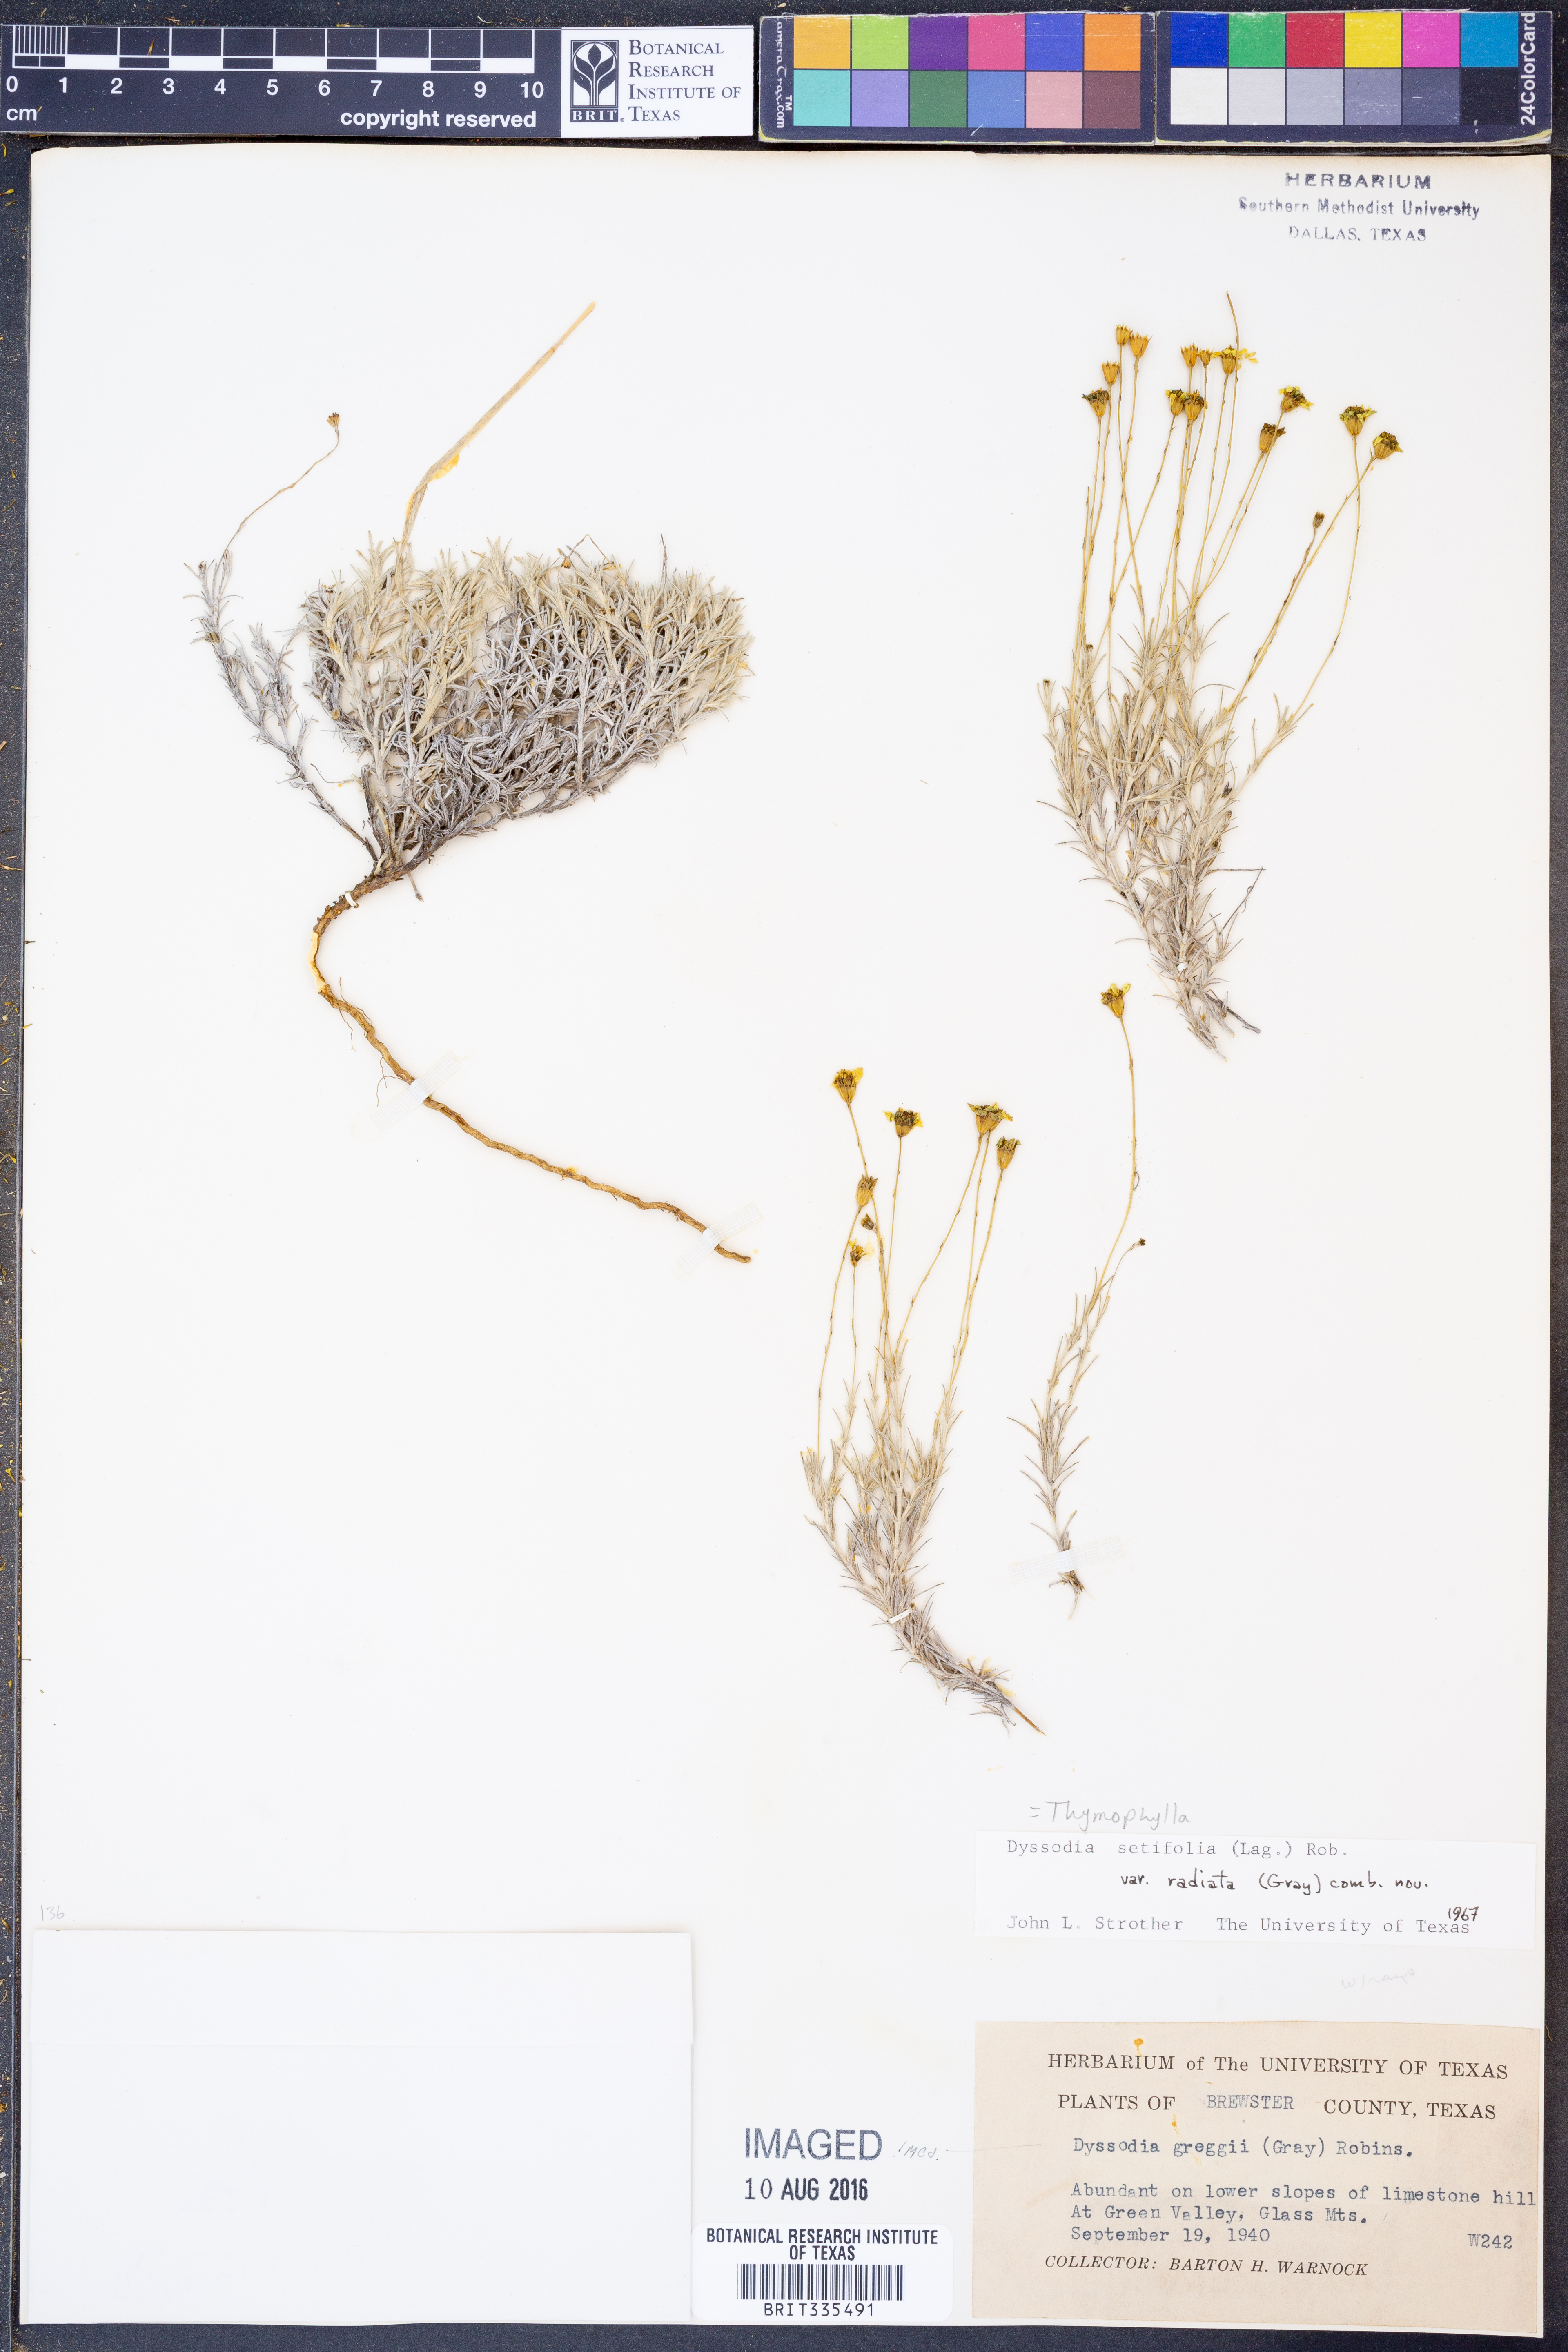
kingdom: Plantae
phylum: Tracheophyta
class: Magnoliopsida
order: Asterales
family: Asteraceae
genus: Thymophylla
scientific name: Thymophylla setifolia
